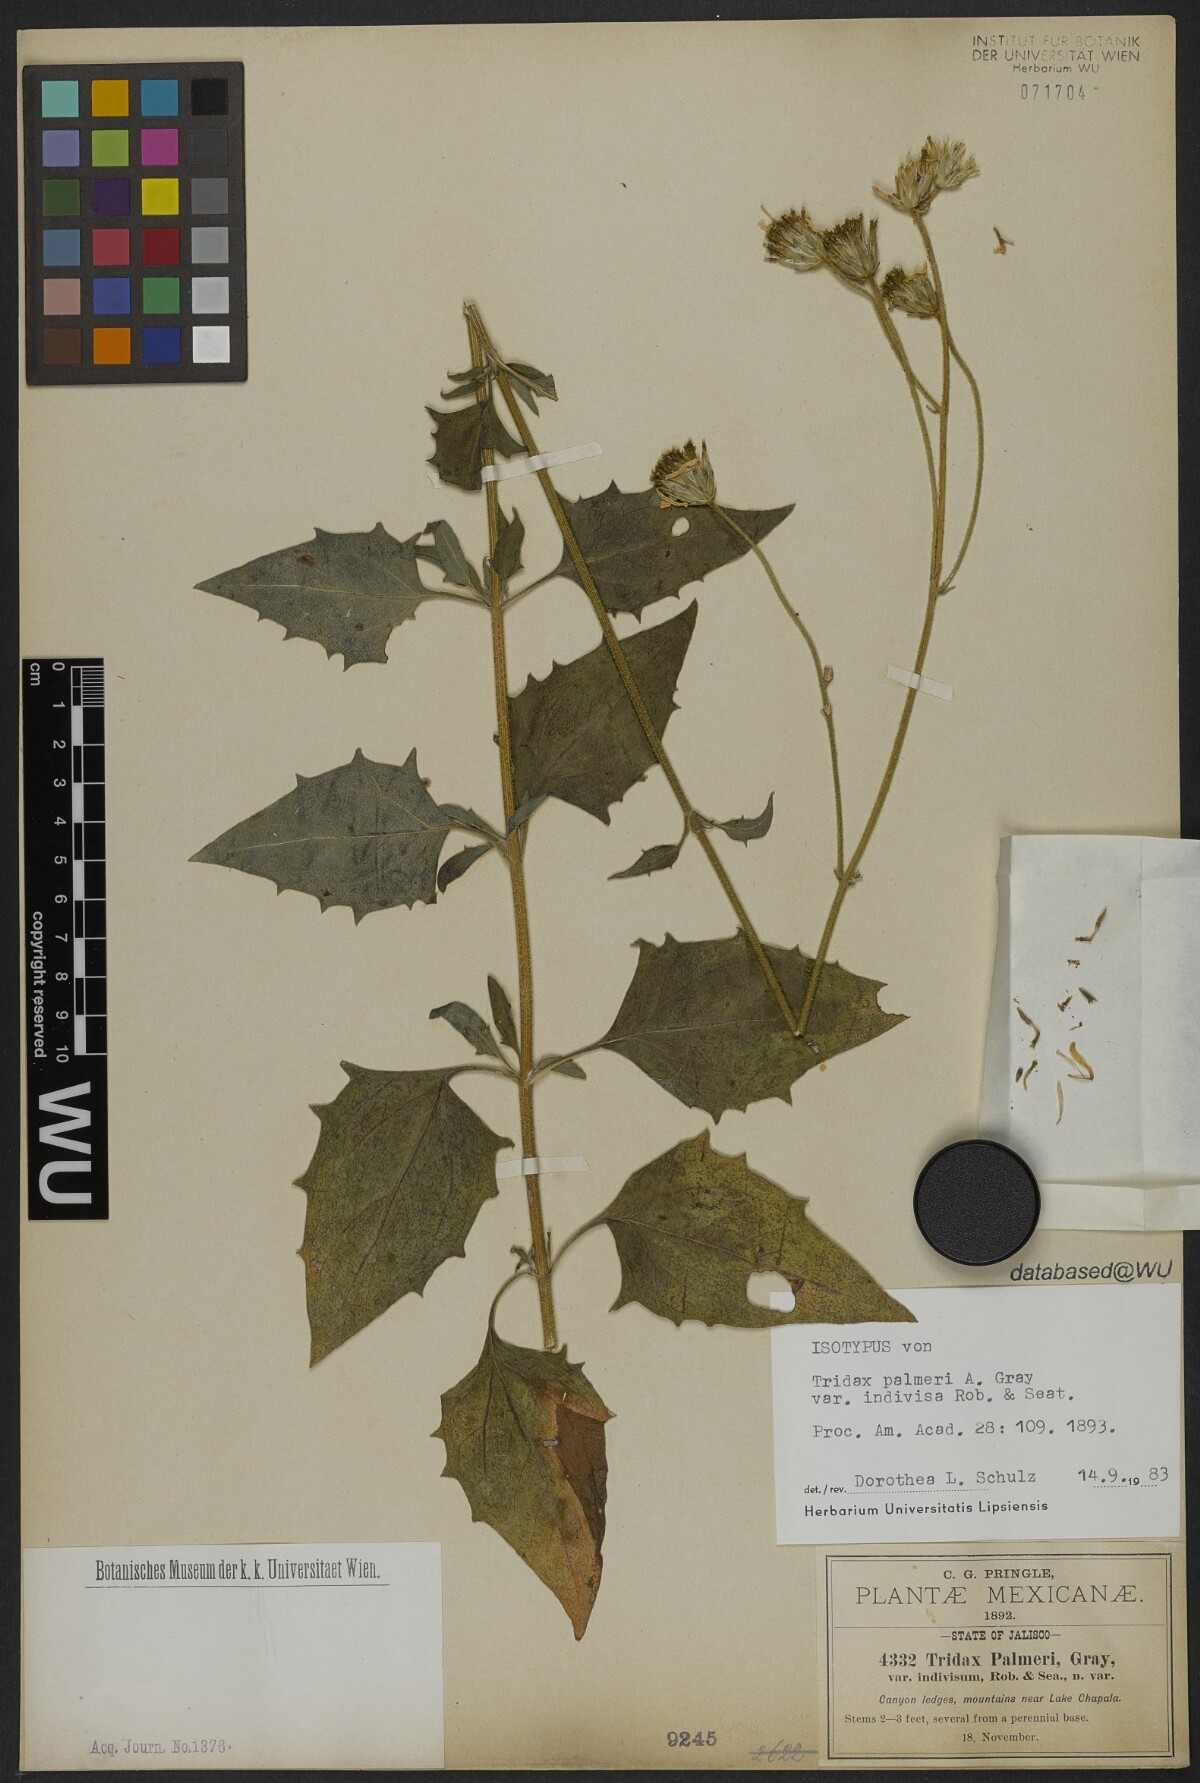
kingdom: Plantae
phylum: Tracheophyta
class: Magnoliopsida
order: Asterales
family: Asteraceae
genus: Tridax
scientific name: Tridax palmeri
